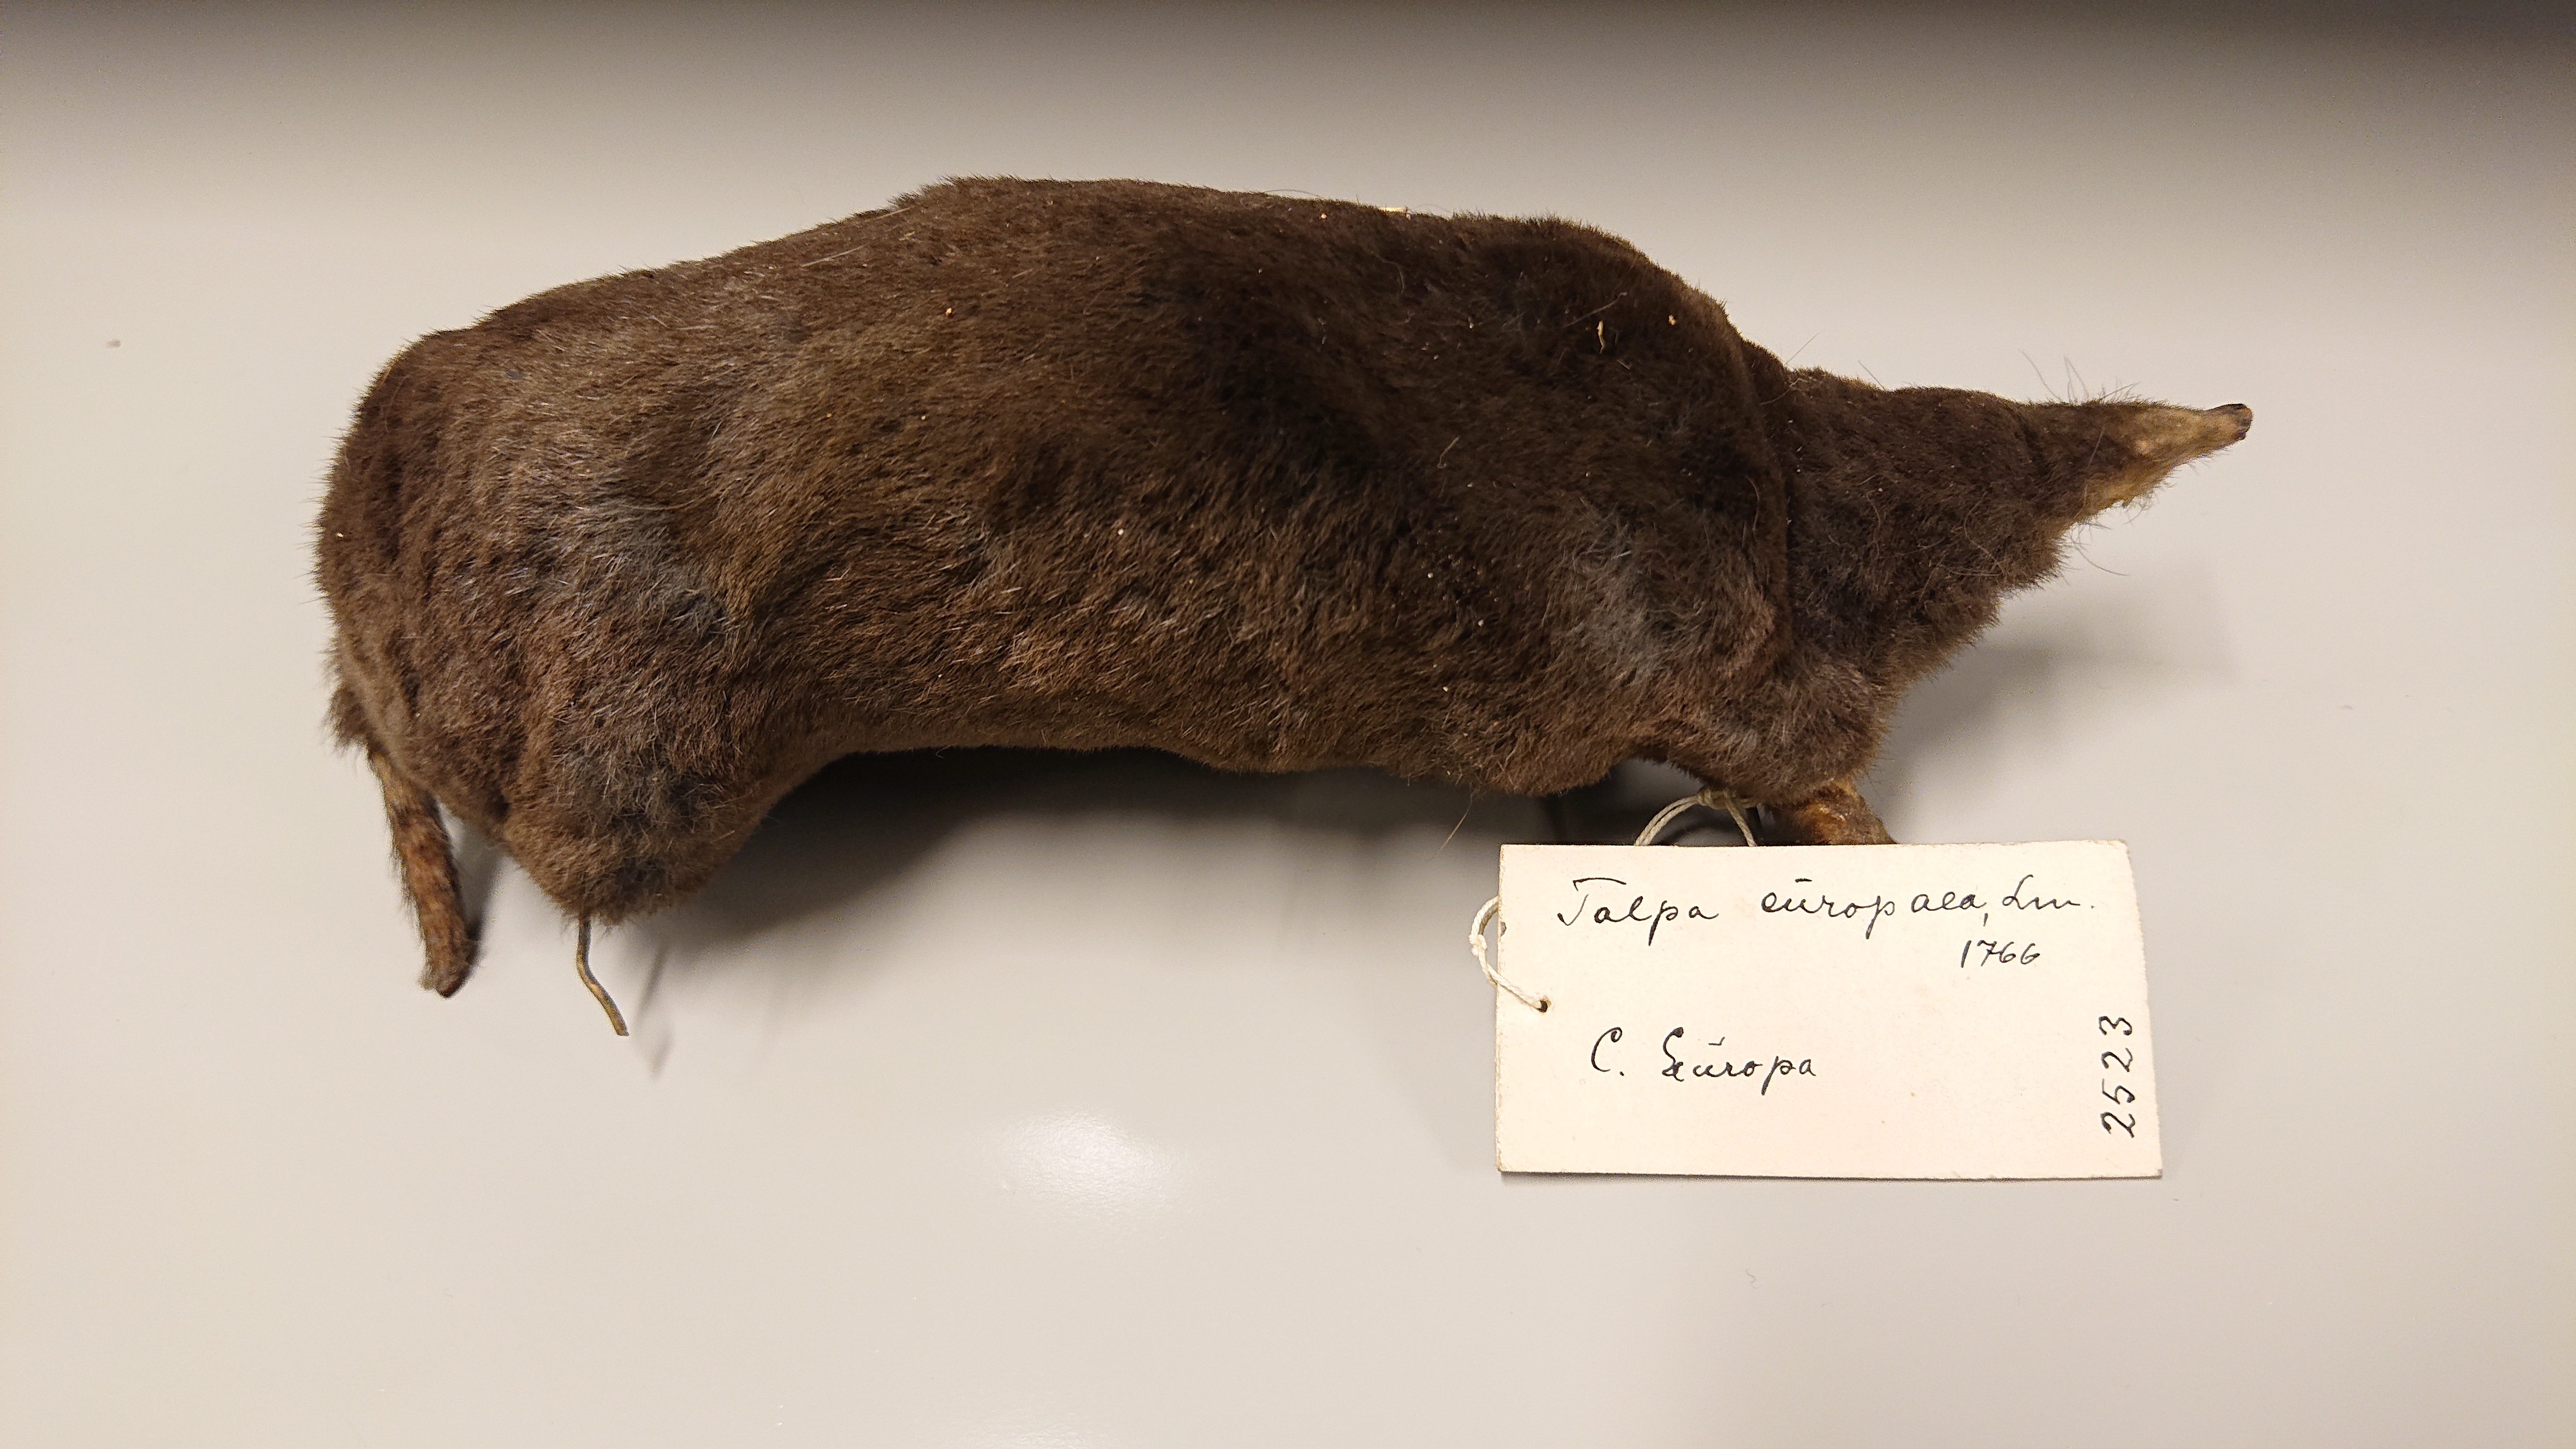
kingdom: Animalia
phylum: Chordata
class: Mammalia
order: Soricomorpha
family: Talpidae
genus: Talpa
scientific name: Talpa europaea
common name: European mole
